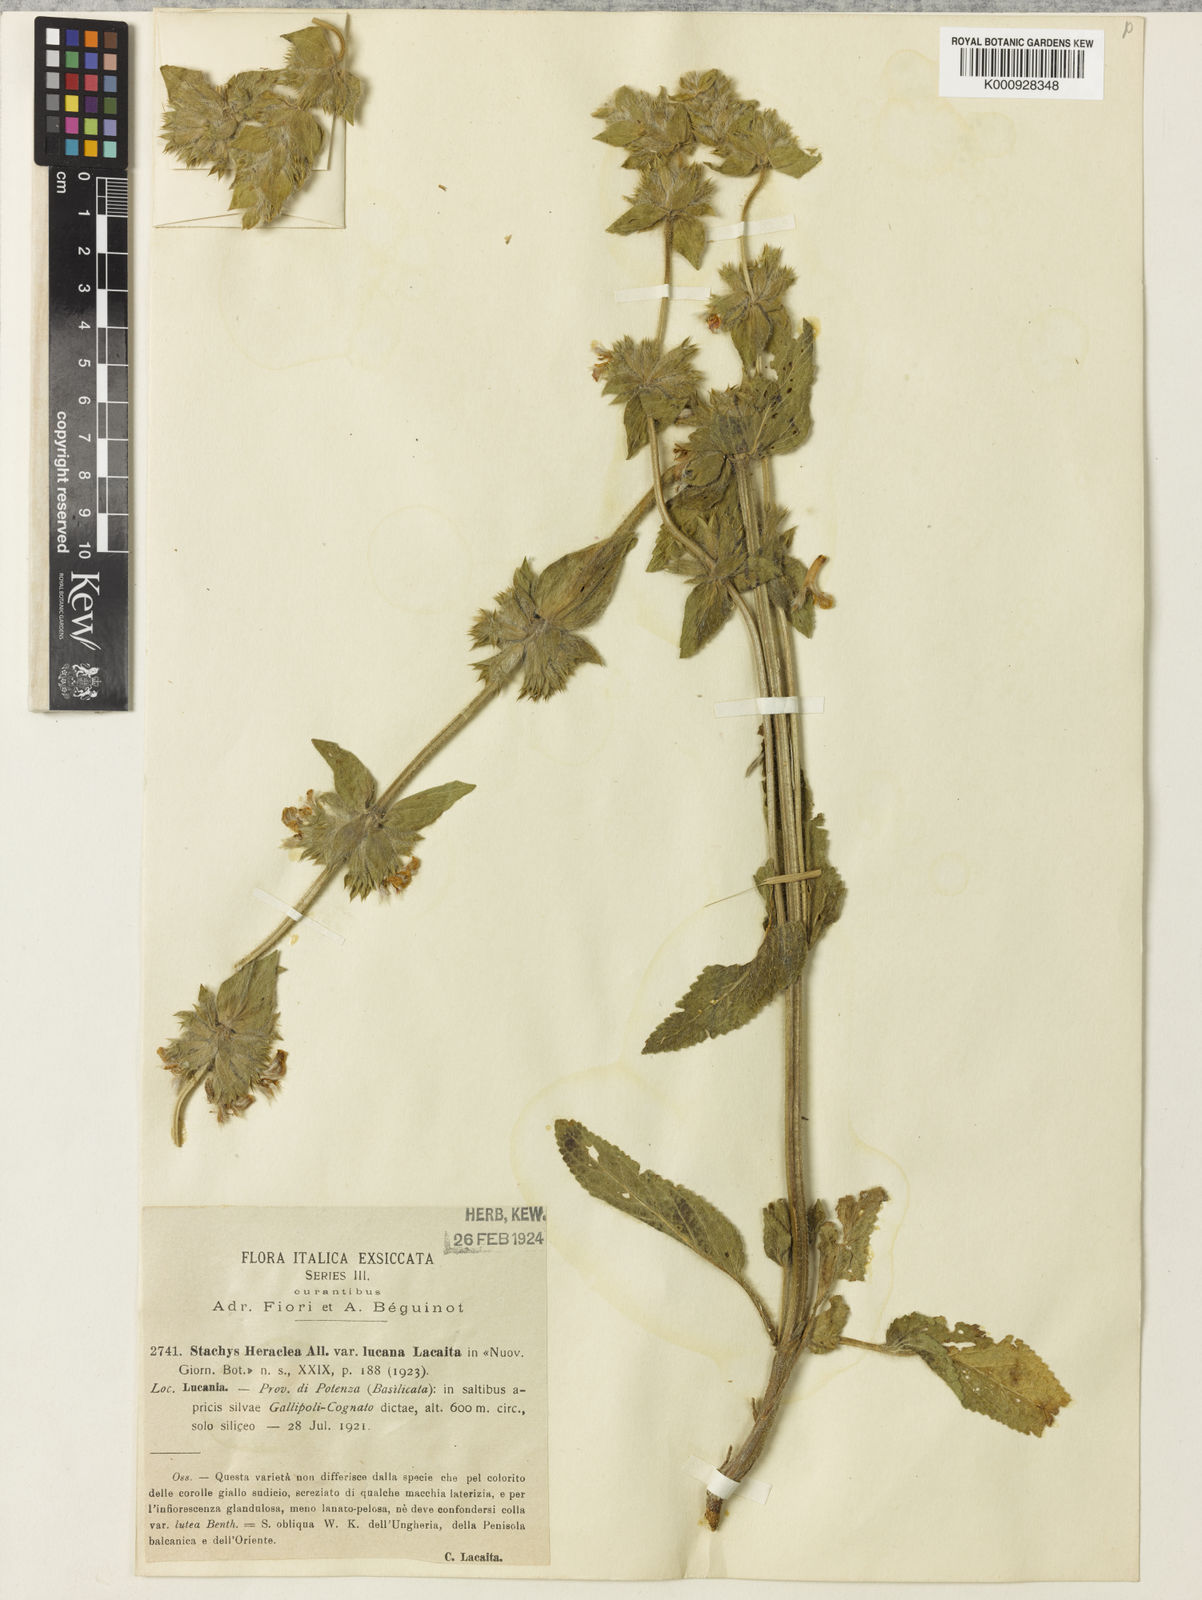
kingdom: Plantae
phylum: Tracheophyta
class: Magnoliopsida
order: Lamiales
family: Lamiaceae
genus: Stachys
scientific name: Stachys heraclea
